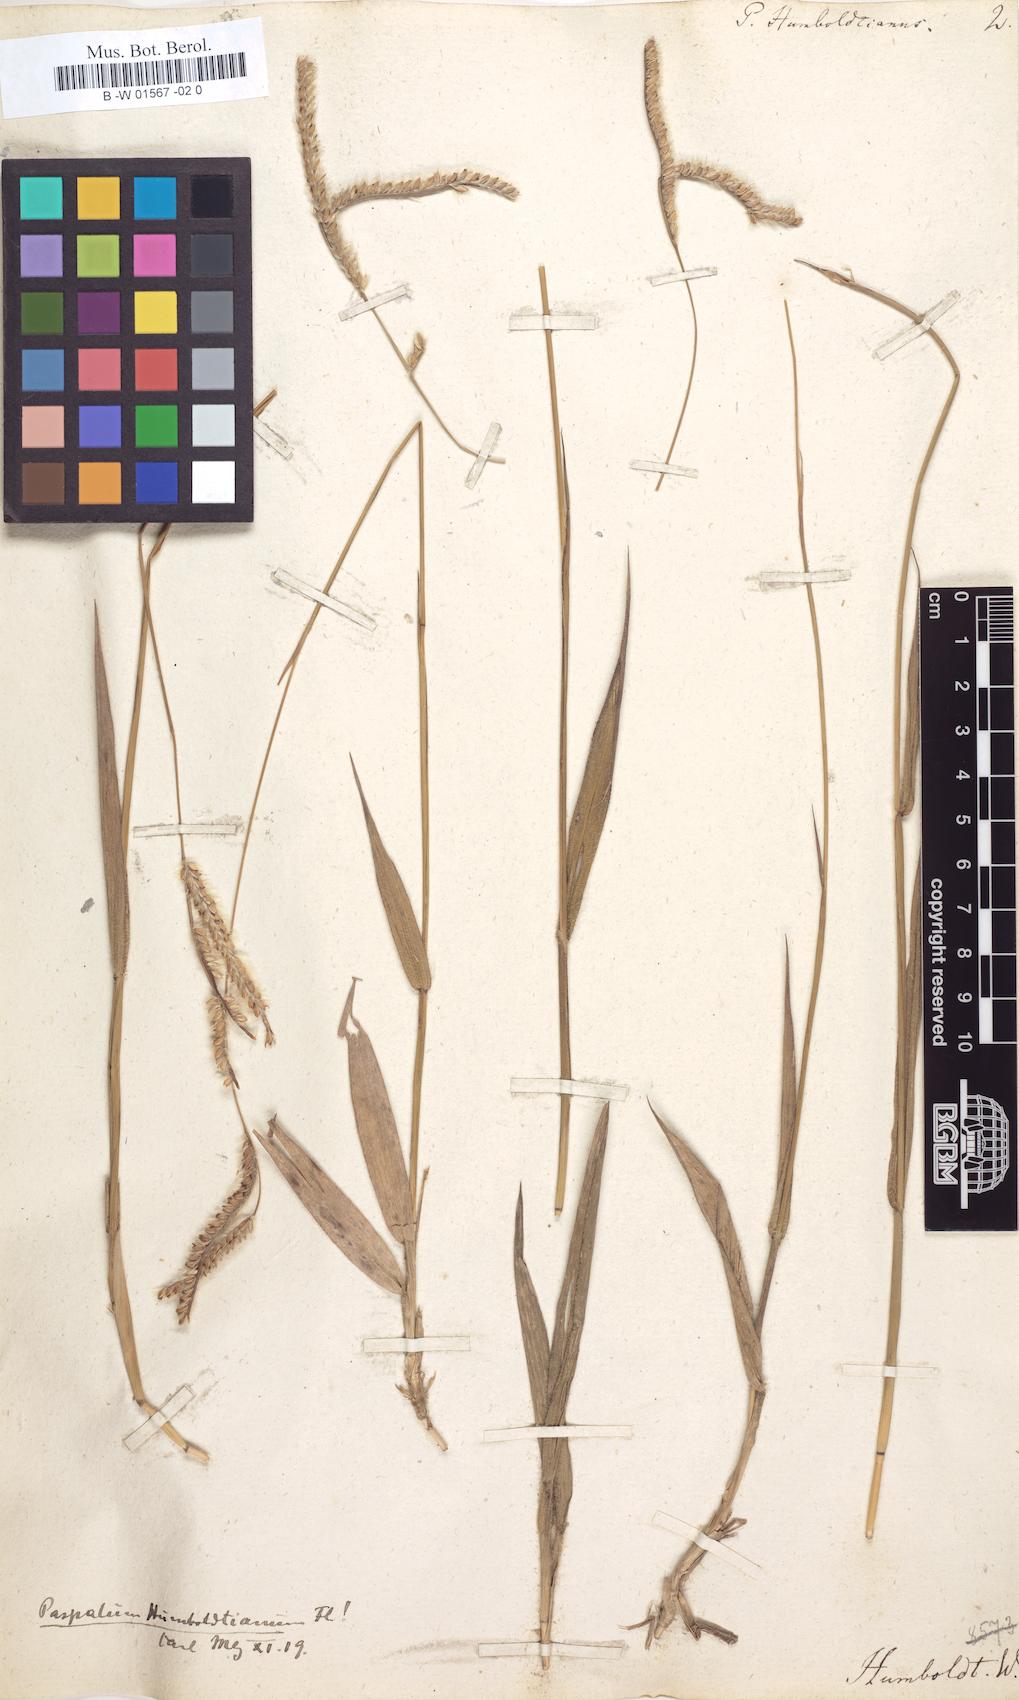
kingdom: Plantae
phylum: Tracheophyta
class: Liliopsida
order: Poales
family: Poaceae
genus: Paspalum
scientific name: Paspalum humboldtianum
